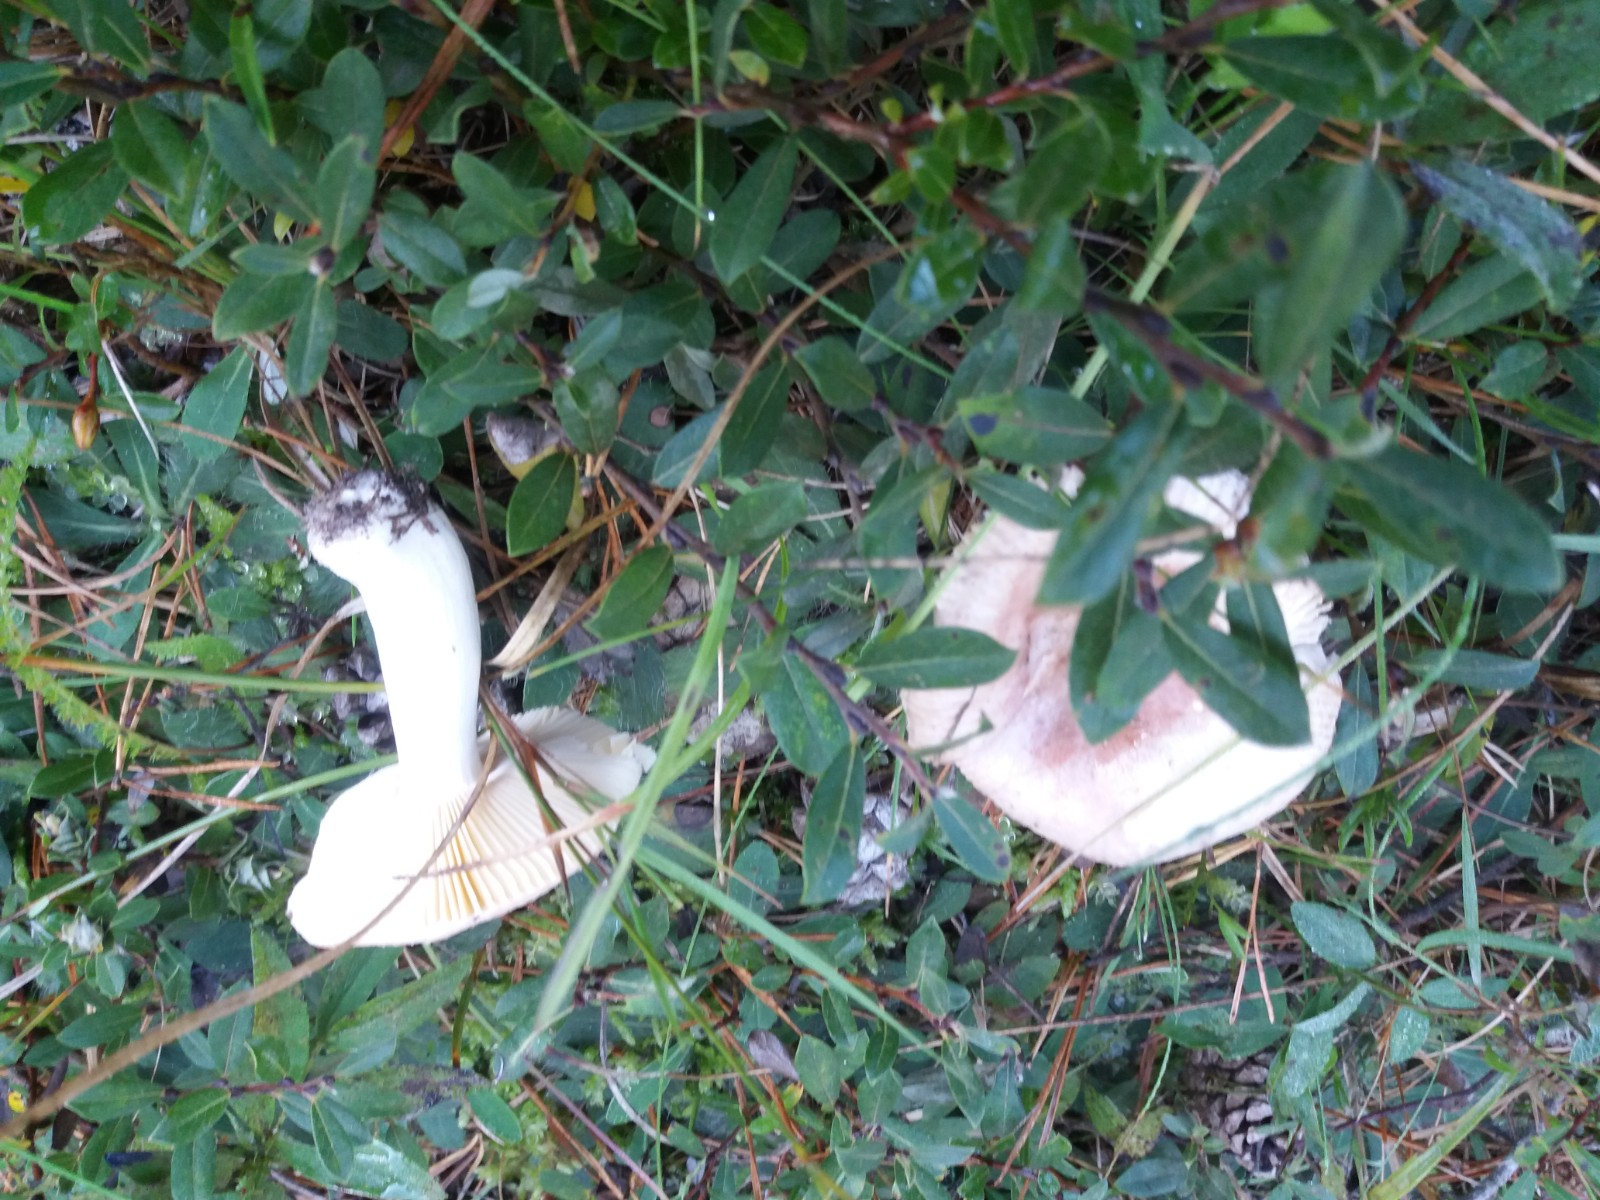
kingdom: Fungi
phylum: Basidiomycota
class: Agaricomycetes
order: Russulales
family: Russulaceae
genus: Russula
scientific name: Russula cessans
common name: fyrre-skørhat
